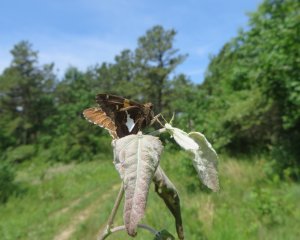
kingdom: Animalia
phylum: Arthropoda
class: Insecta
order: Lepidoptera
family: Hesperiidae
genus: Epargyreus
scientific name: Epargyreus clarus
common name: Silver-spotted Skipper
